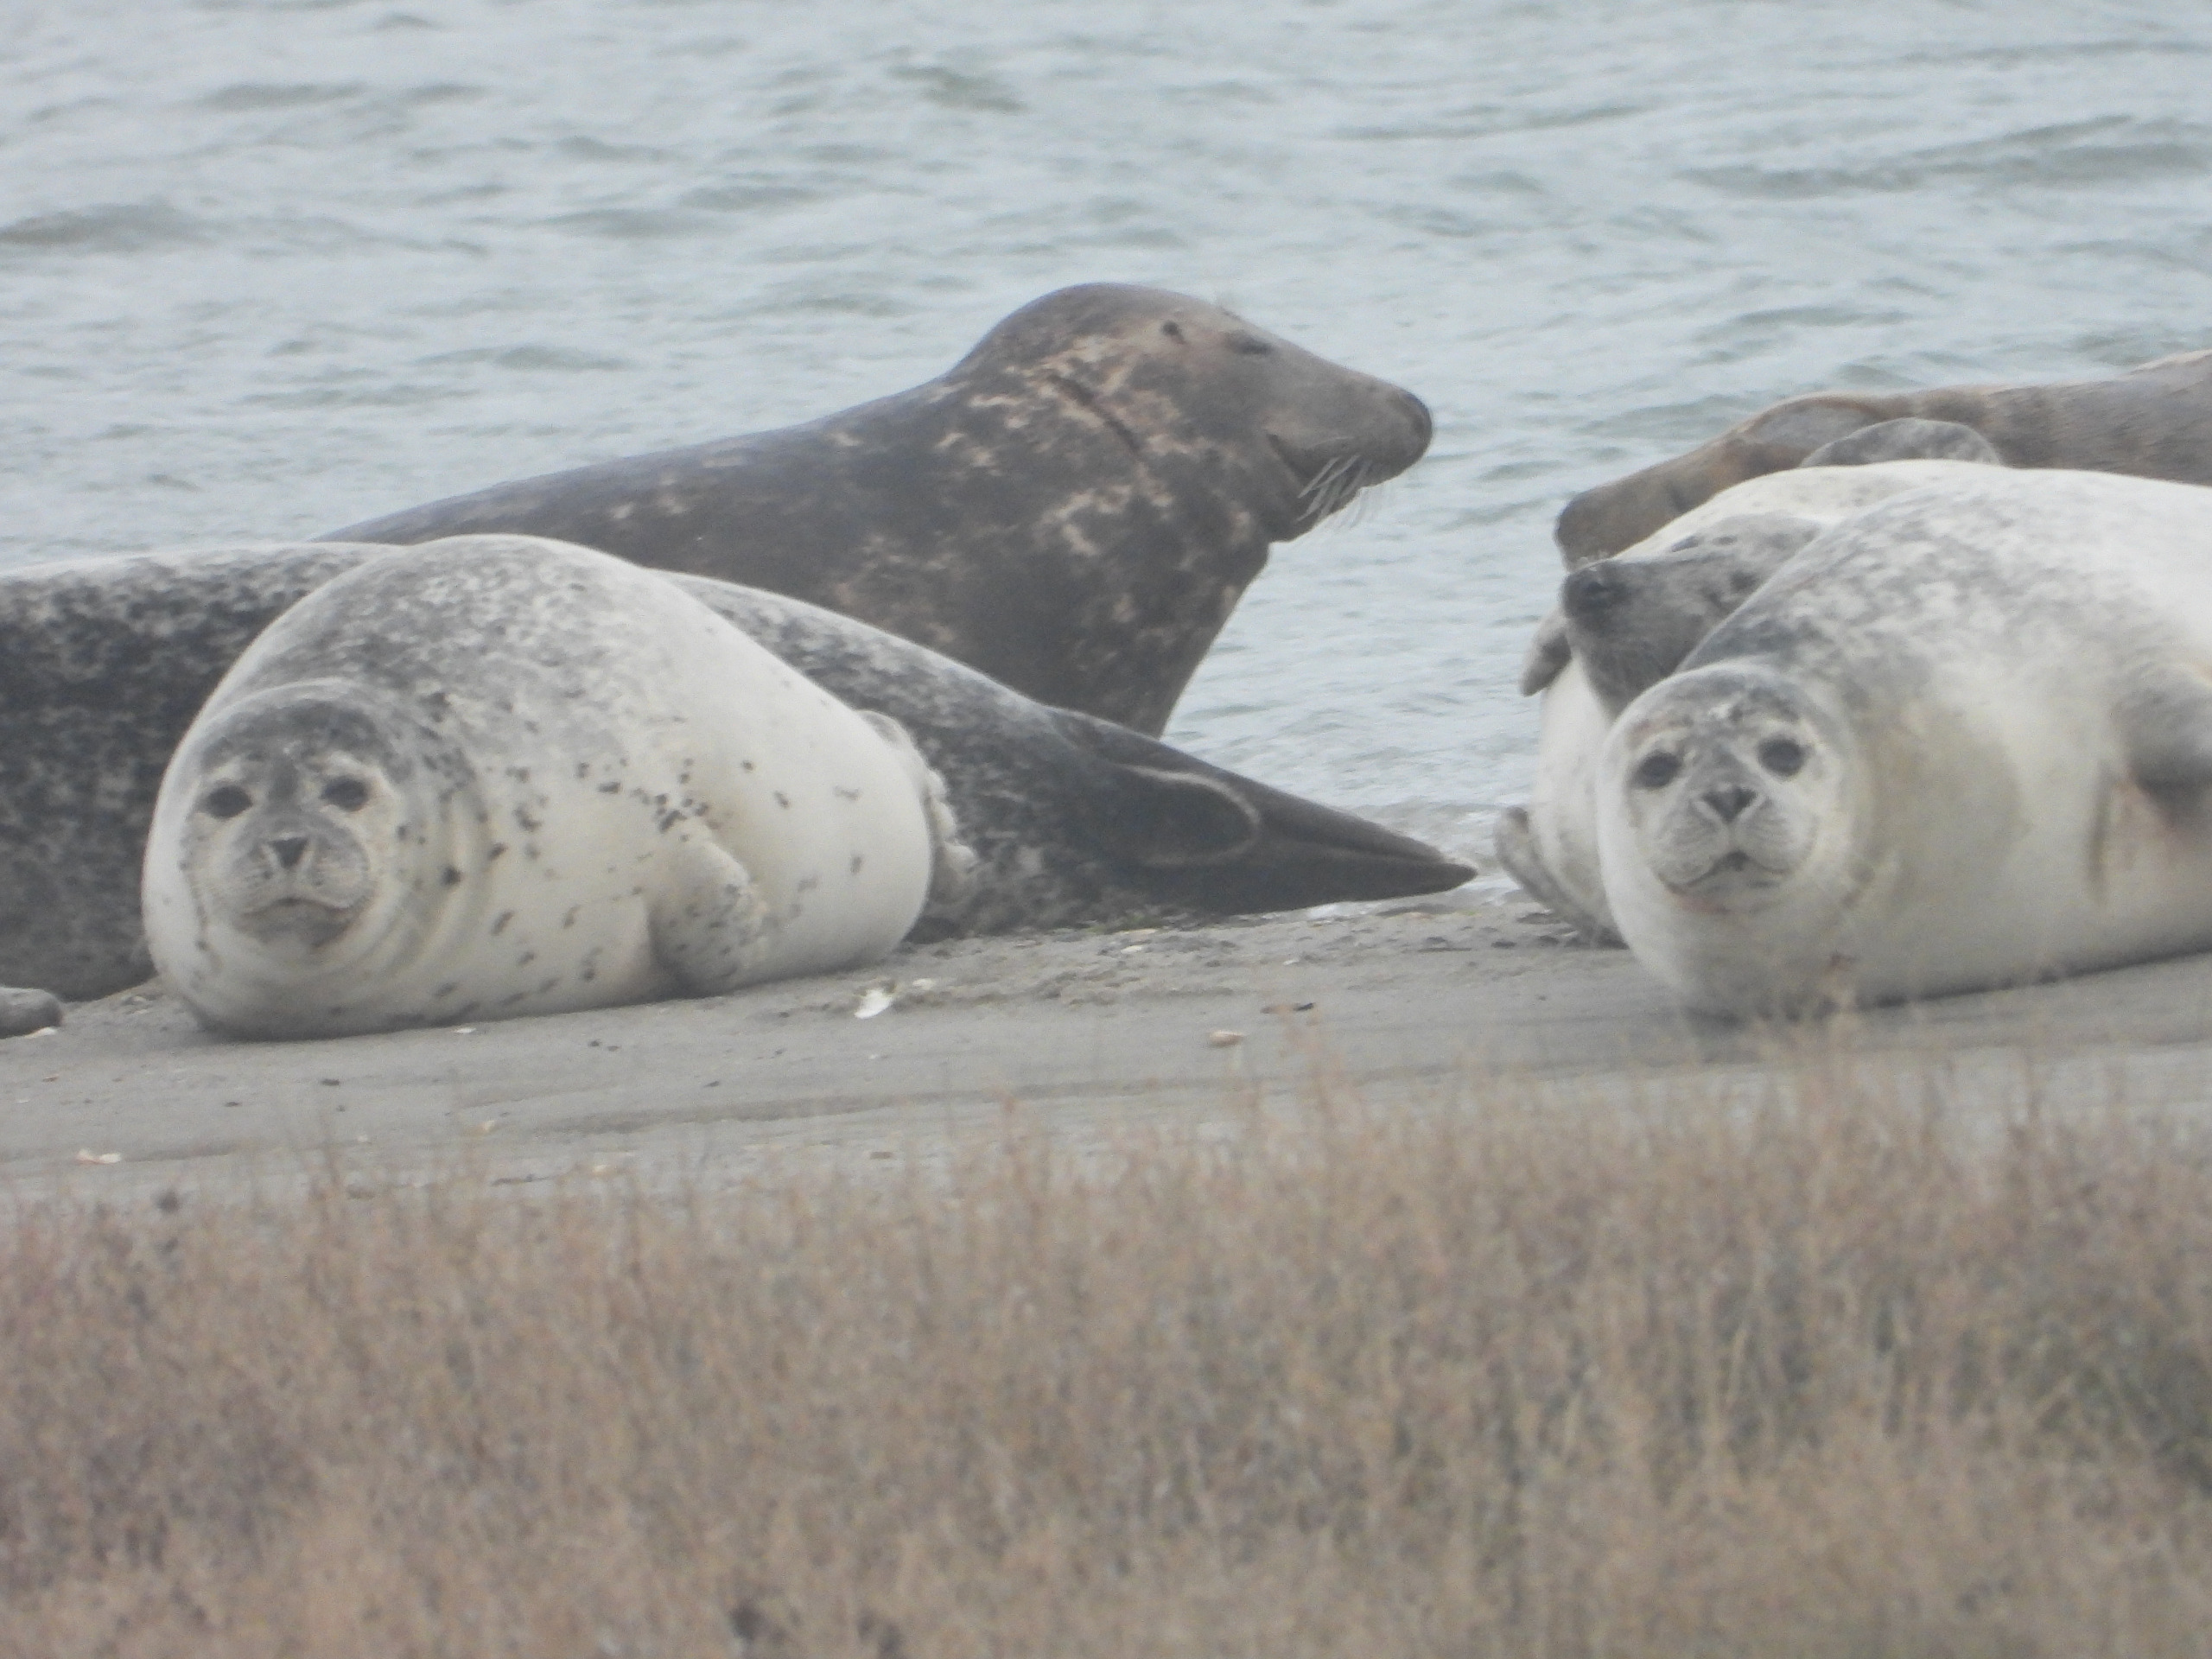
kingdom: Animalia
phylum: Chordata
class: Mammalia
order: Carnivora
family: Phocidae
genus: Halichoerus
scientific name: Halichoerus grypus
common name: Gråsæl
